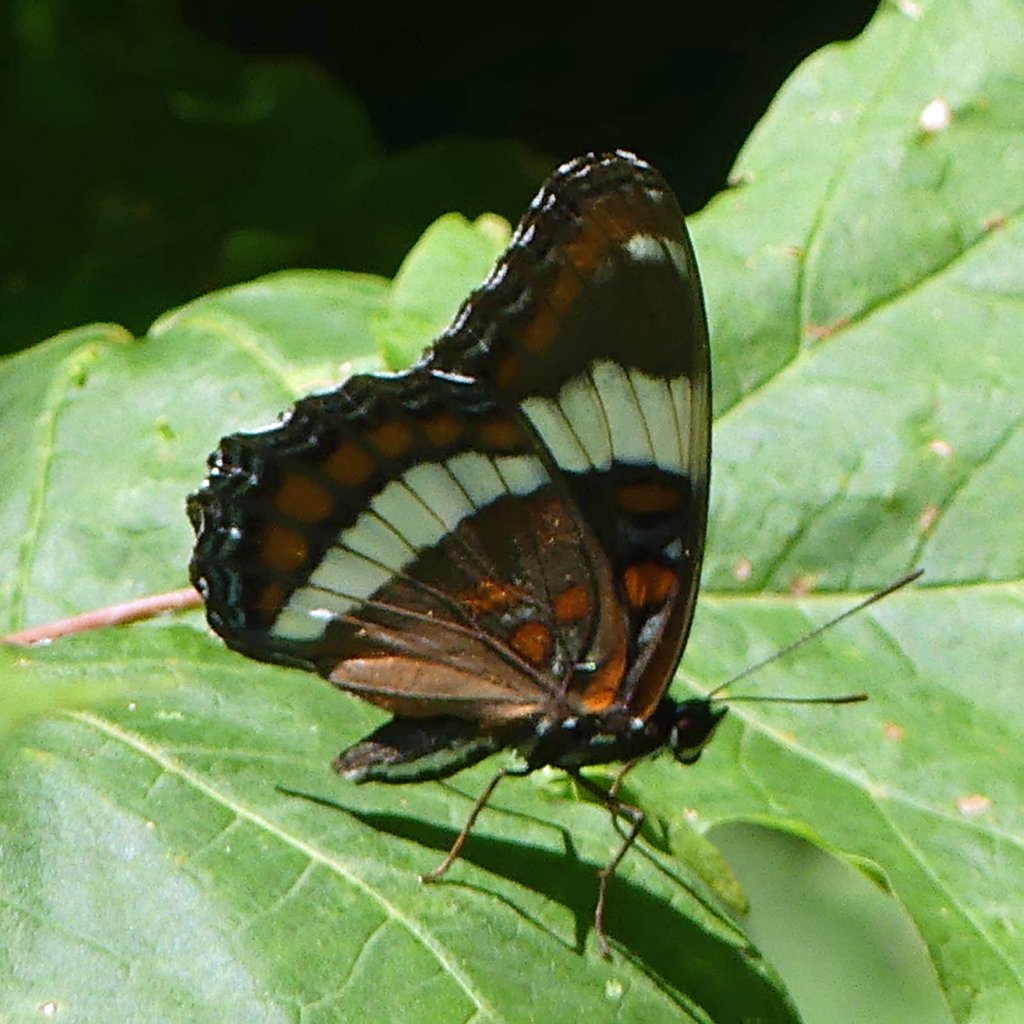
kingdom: Animalia
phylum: Arthropoda
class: Insecta
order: Lepidoptera
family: Nymphalidae
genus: Limenitis
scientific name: Limenitis arthemis
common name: Red-spotted Admiral
